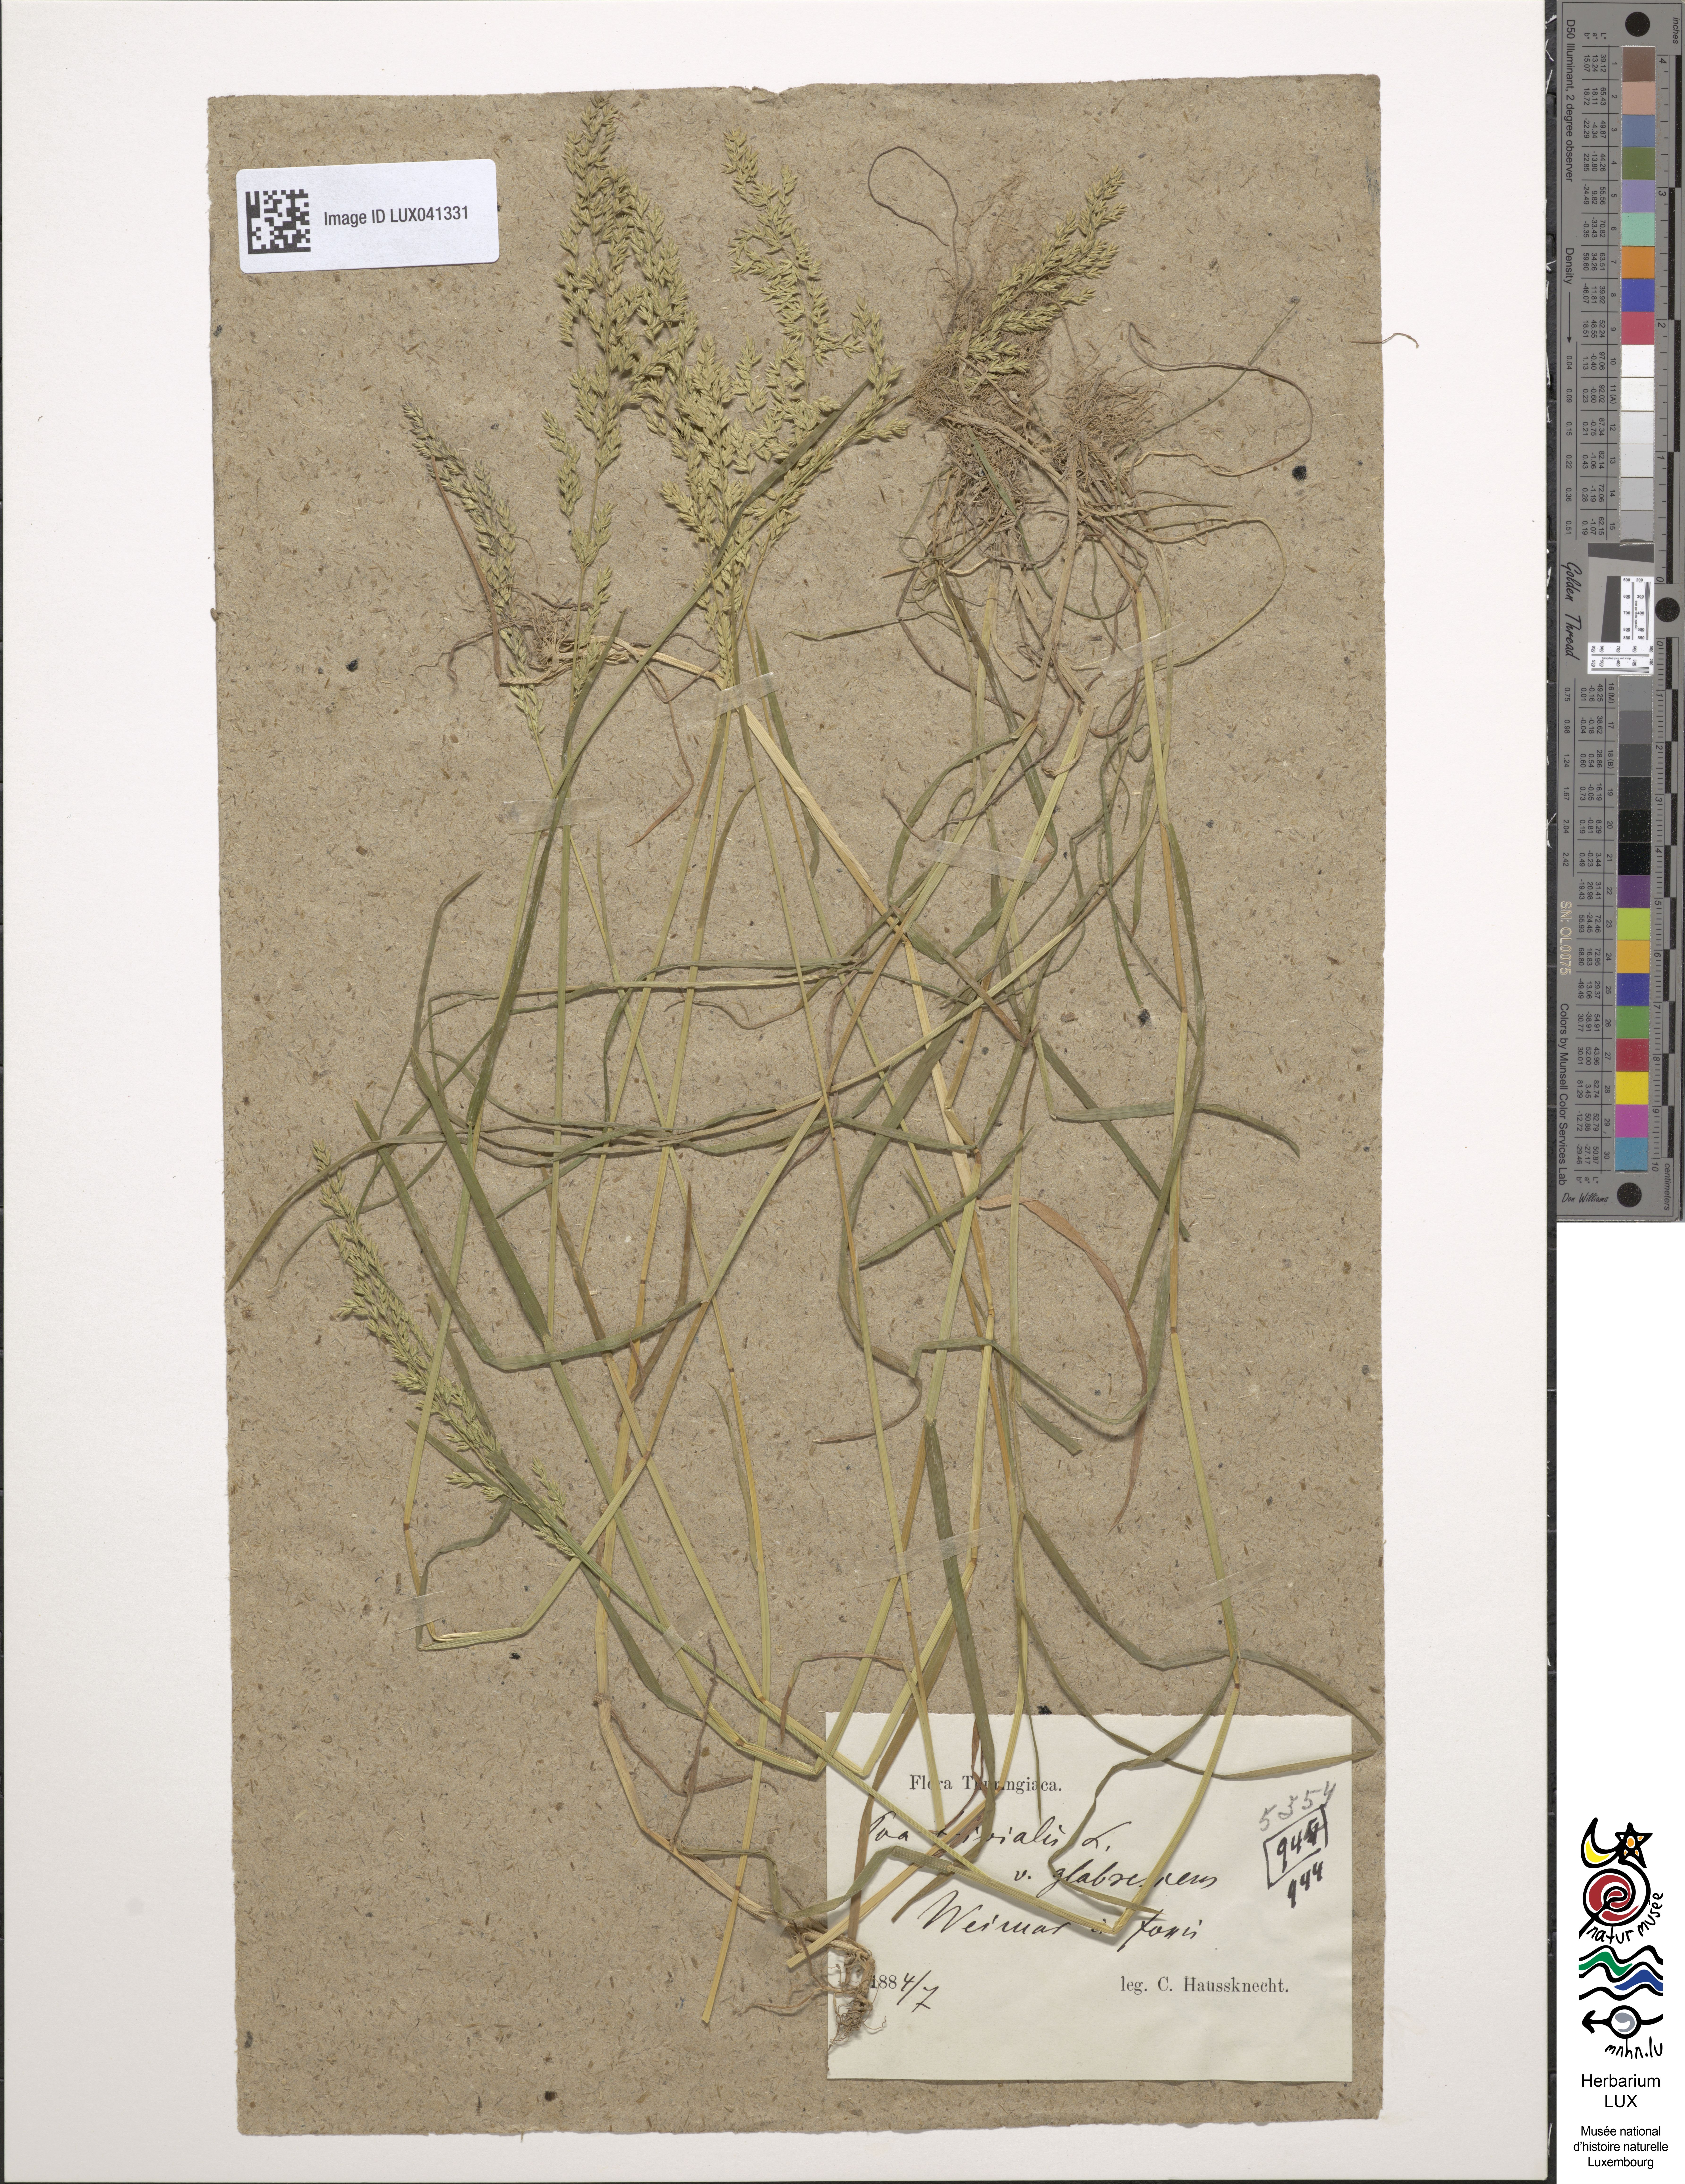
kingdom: Plantae
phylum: Tracheophyta
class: Liliopsida
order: Poales
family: Poaceae
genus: Poa
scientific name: Poa trivialis
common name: Rough bluegrass
